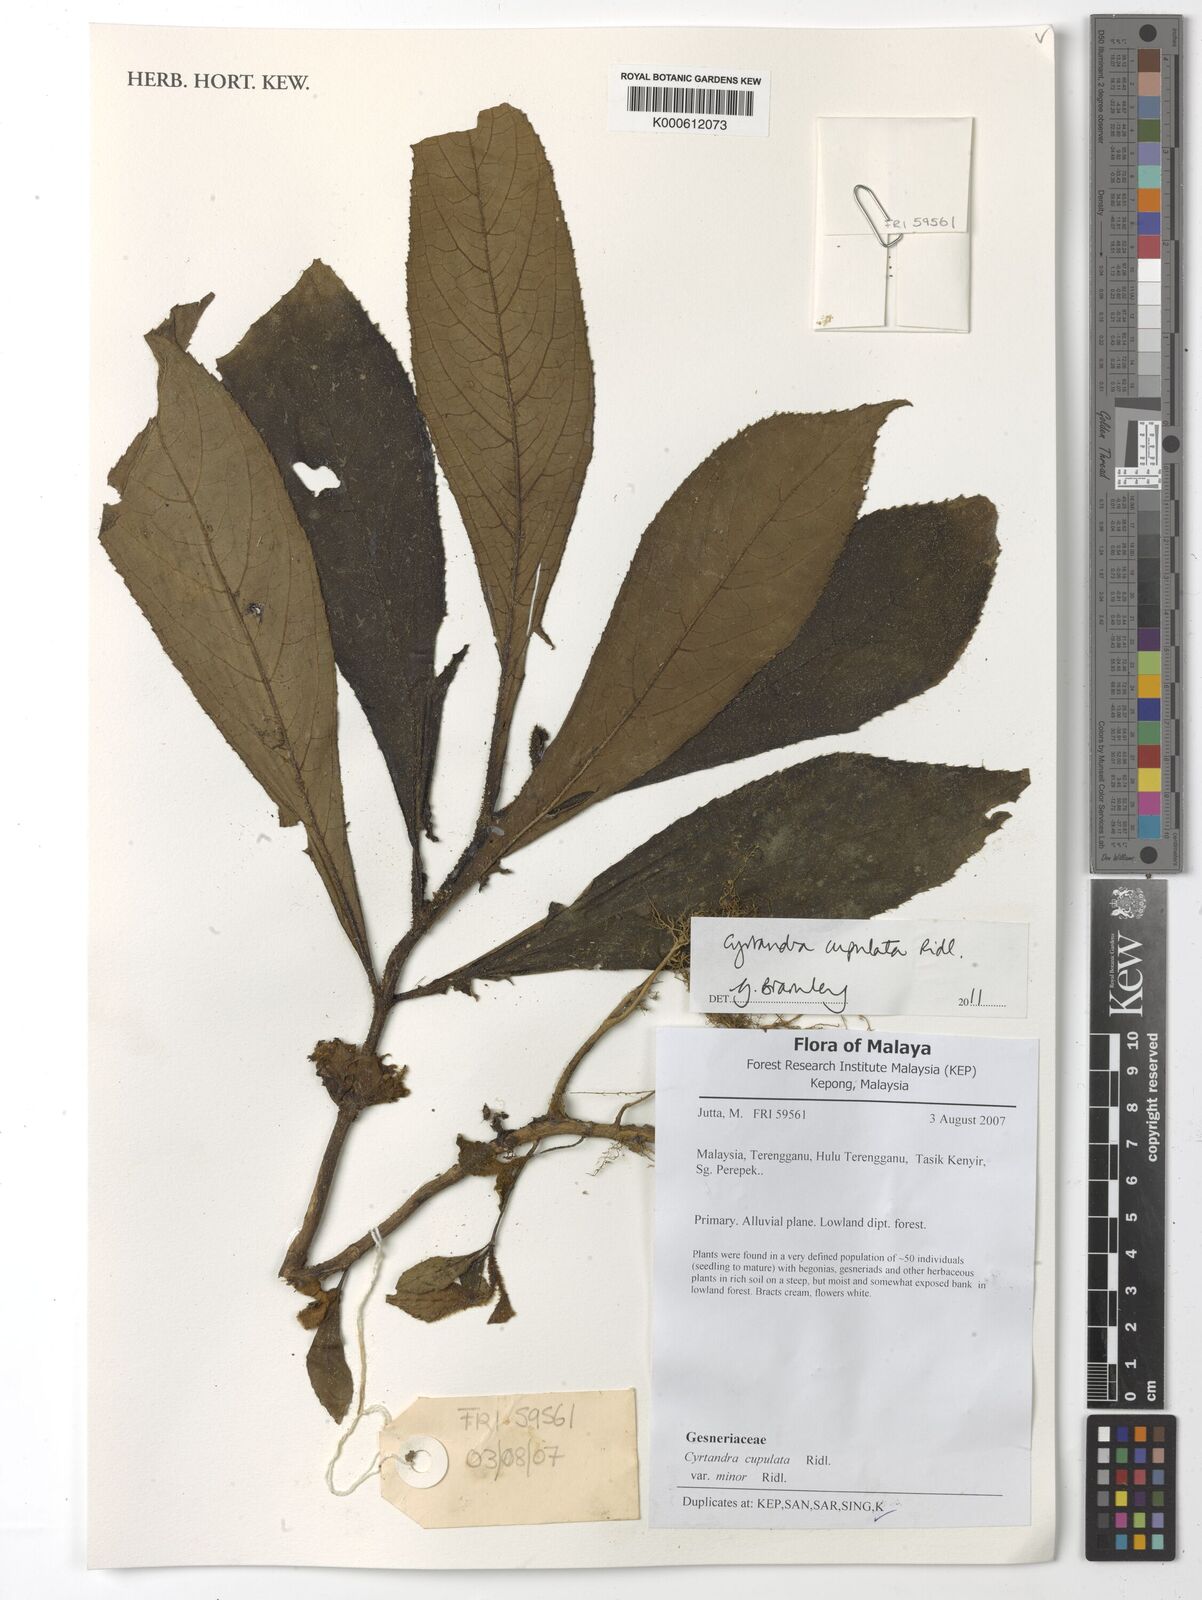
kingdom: Plantae
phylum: Tracheophyta
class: Magnoliopsida
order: Lamiales
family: Gesneriaceae
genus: Cyrtandra
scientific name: Cyrtandra cupulata
